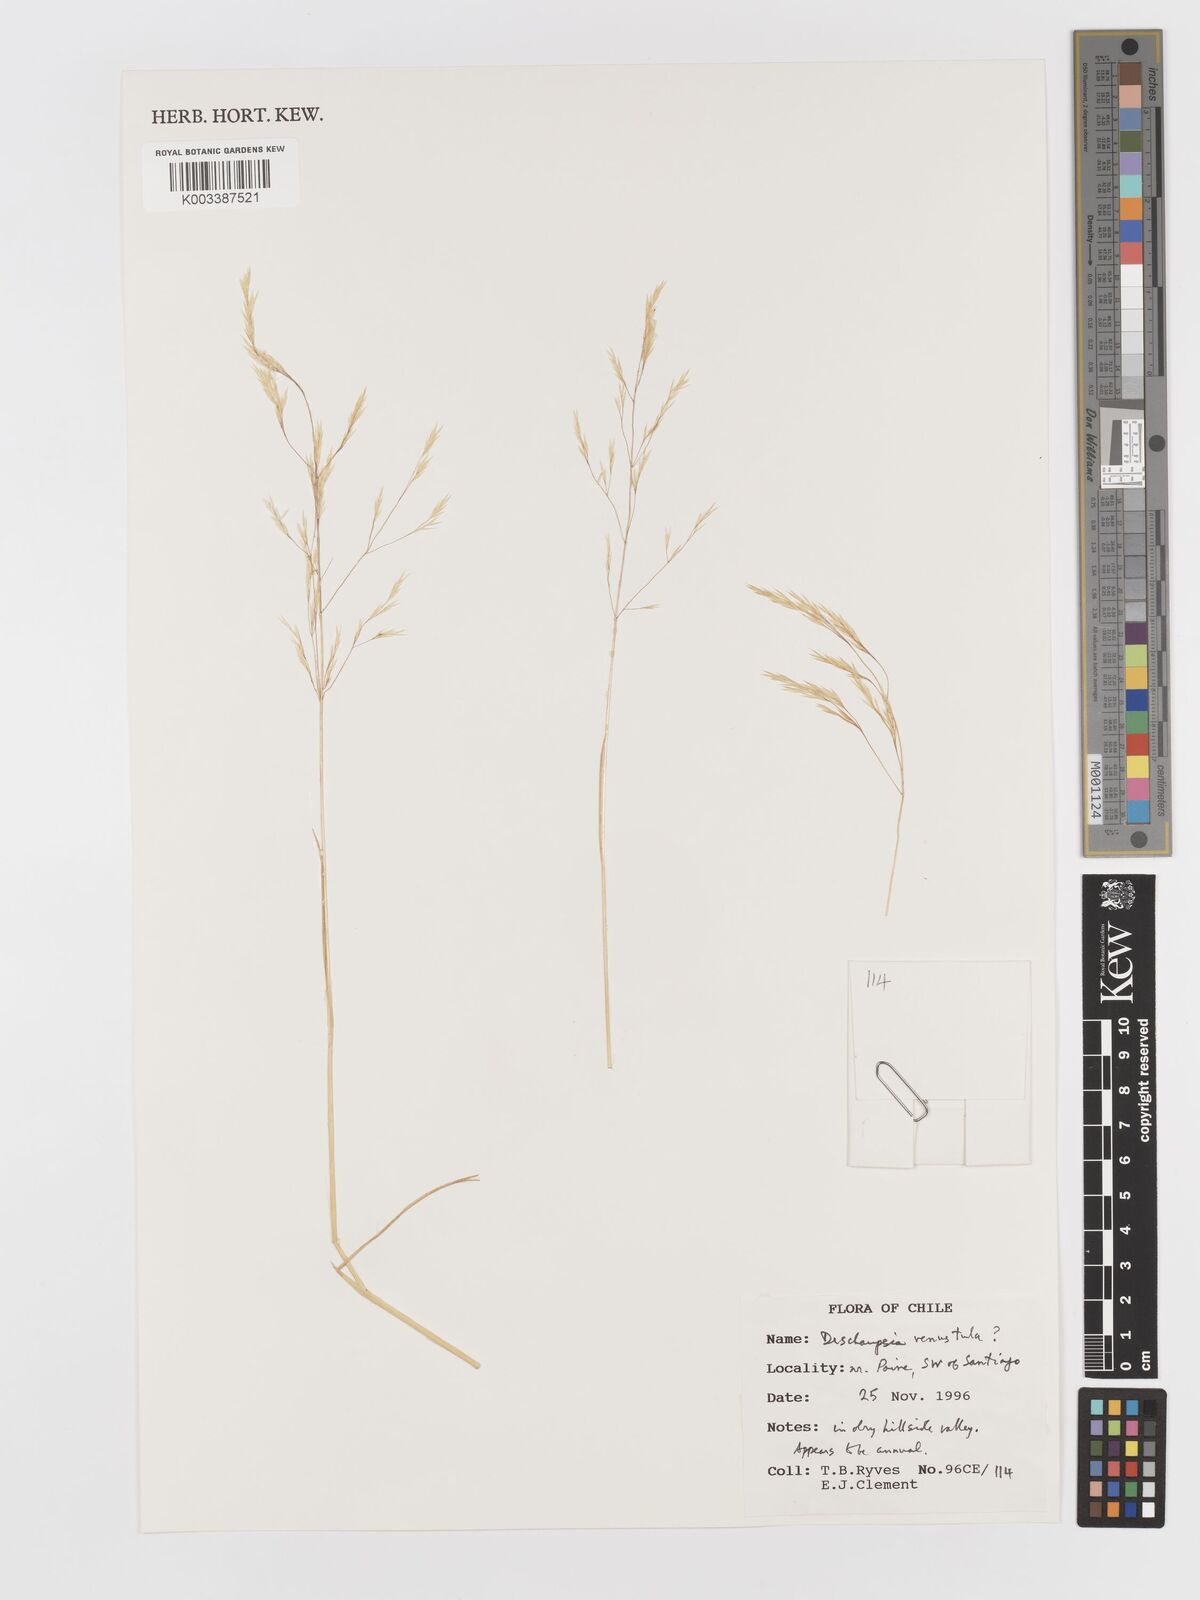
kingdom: Plantae
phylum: Tracheophyta
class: Liliopsida
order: Poales
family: Poaceae
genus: Deschampsia
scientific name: Deschampsia venustula
